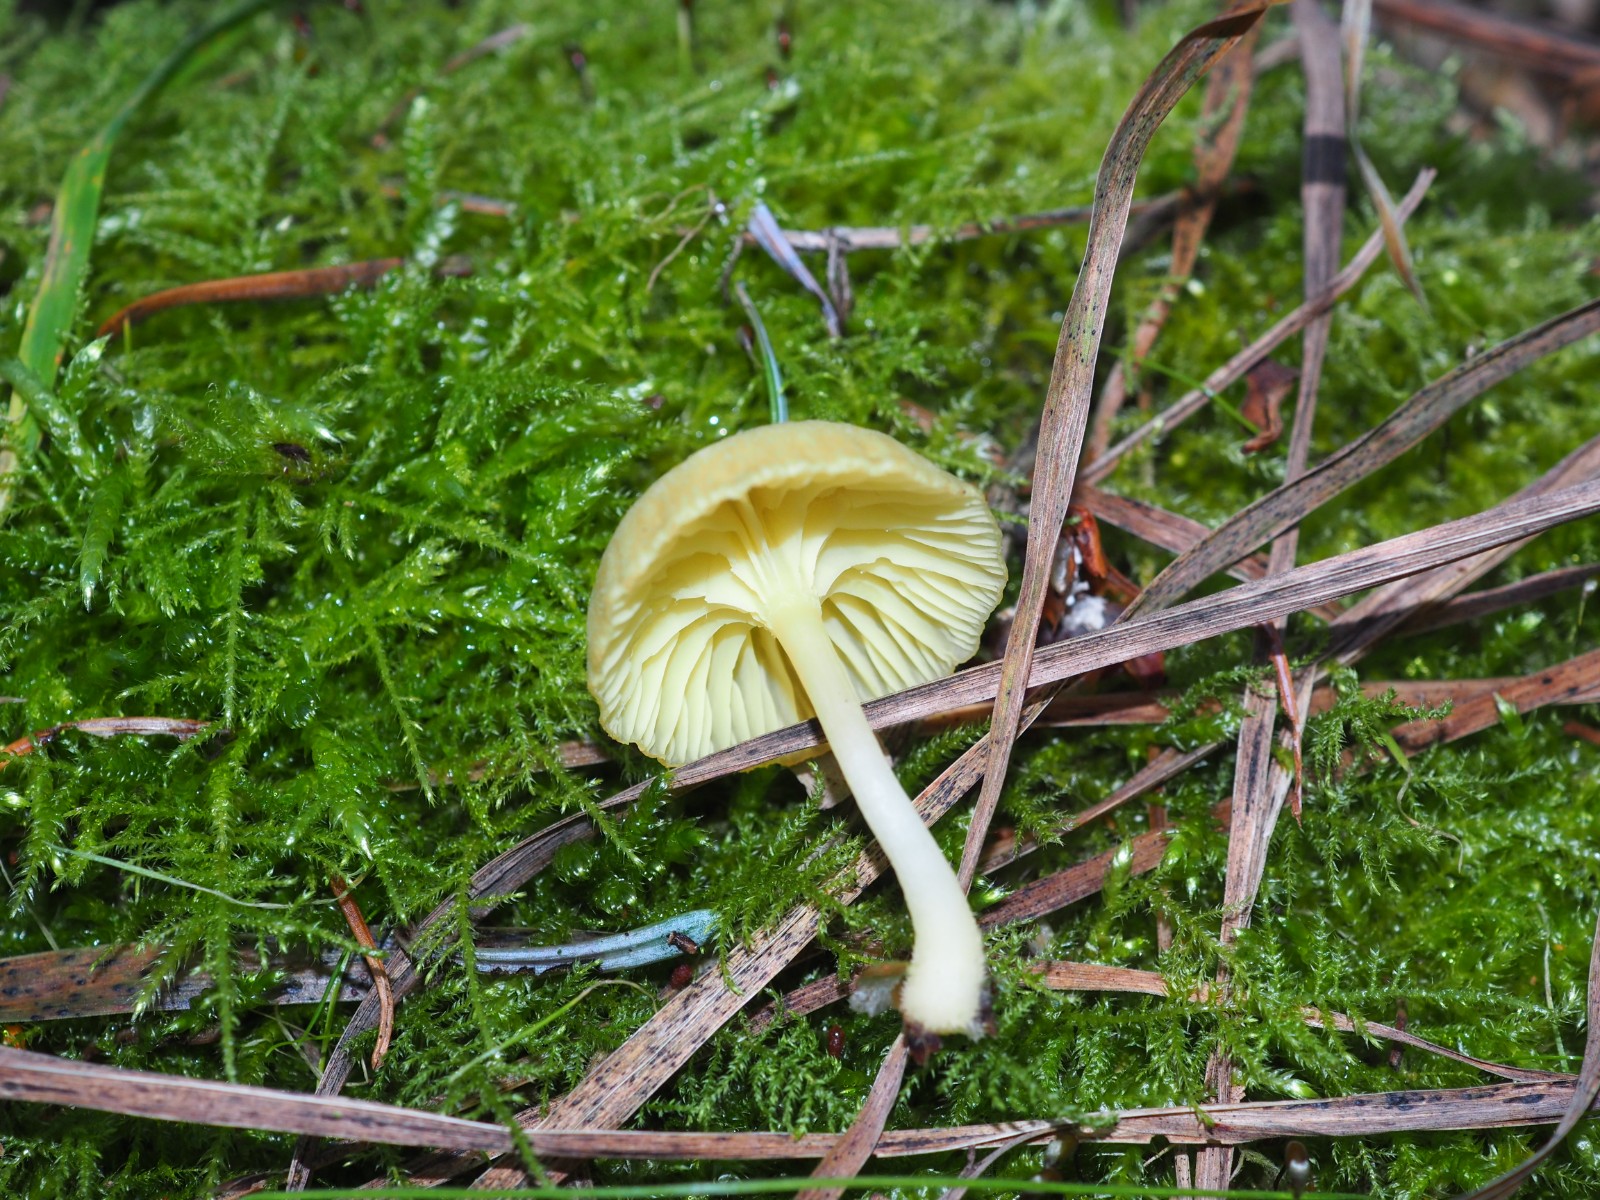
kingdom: Fungi
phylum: Basidiomycota
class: Agaricomycetes
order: Agaricales
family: Hygrophoraceae
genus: Chrysomphalina
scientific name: Chrysomphalina grossula
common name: stød-gyldenblad
